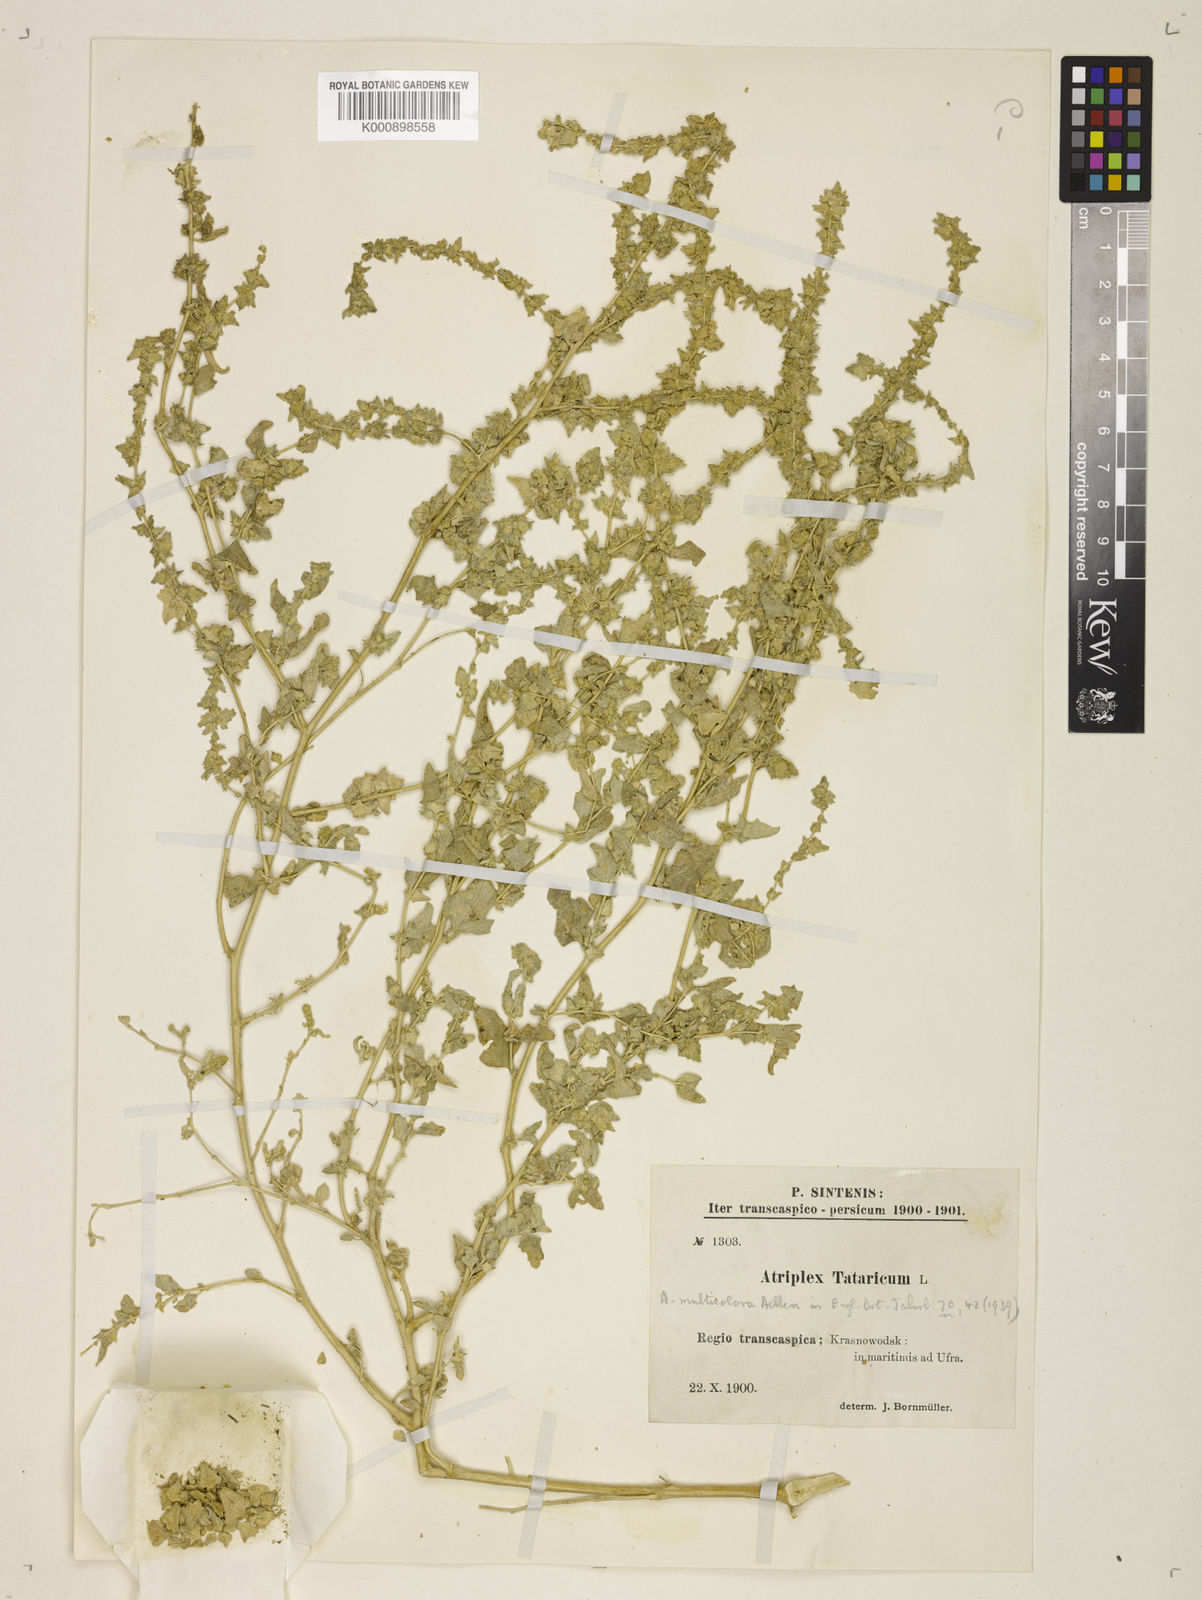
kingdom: Plantae
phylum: Tracheophyta
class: Magnoliopsida
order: Caryophyllales
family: Amaranthaceae
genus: Atriplex
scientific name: Atriplex tatarica
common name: Tatarian orache
